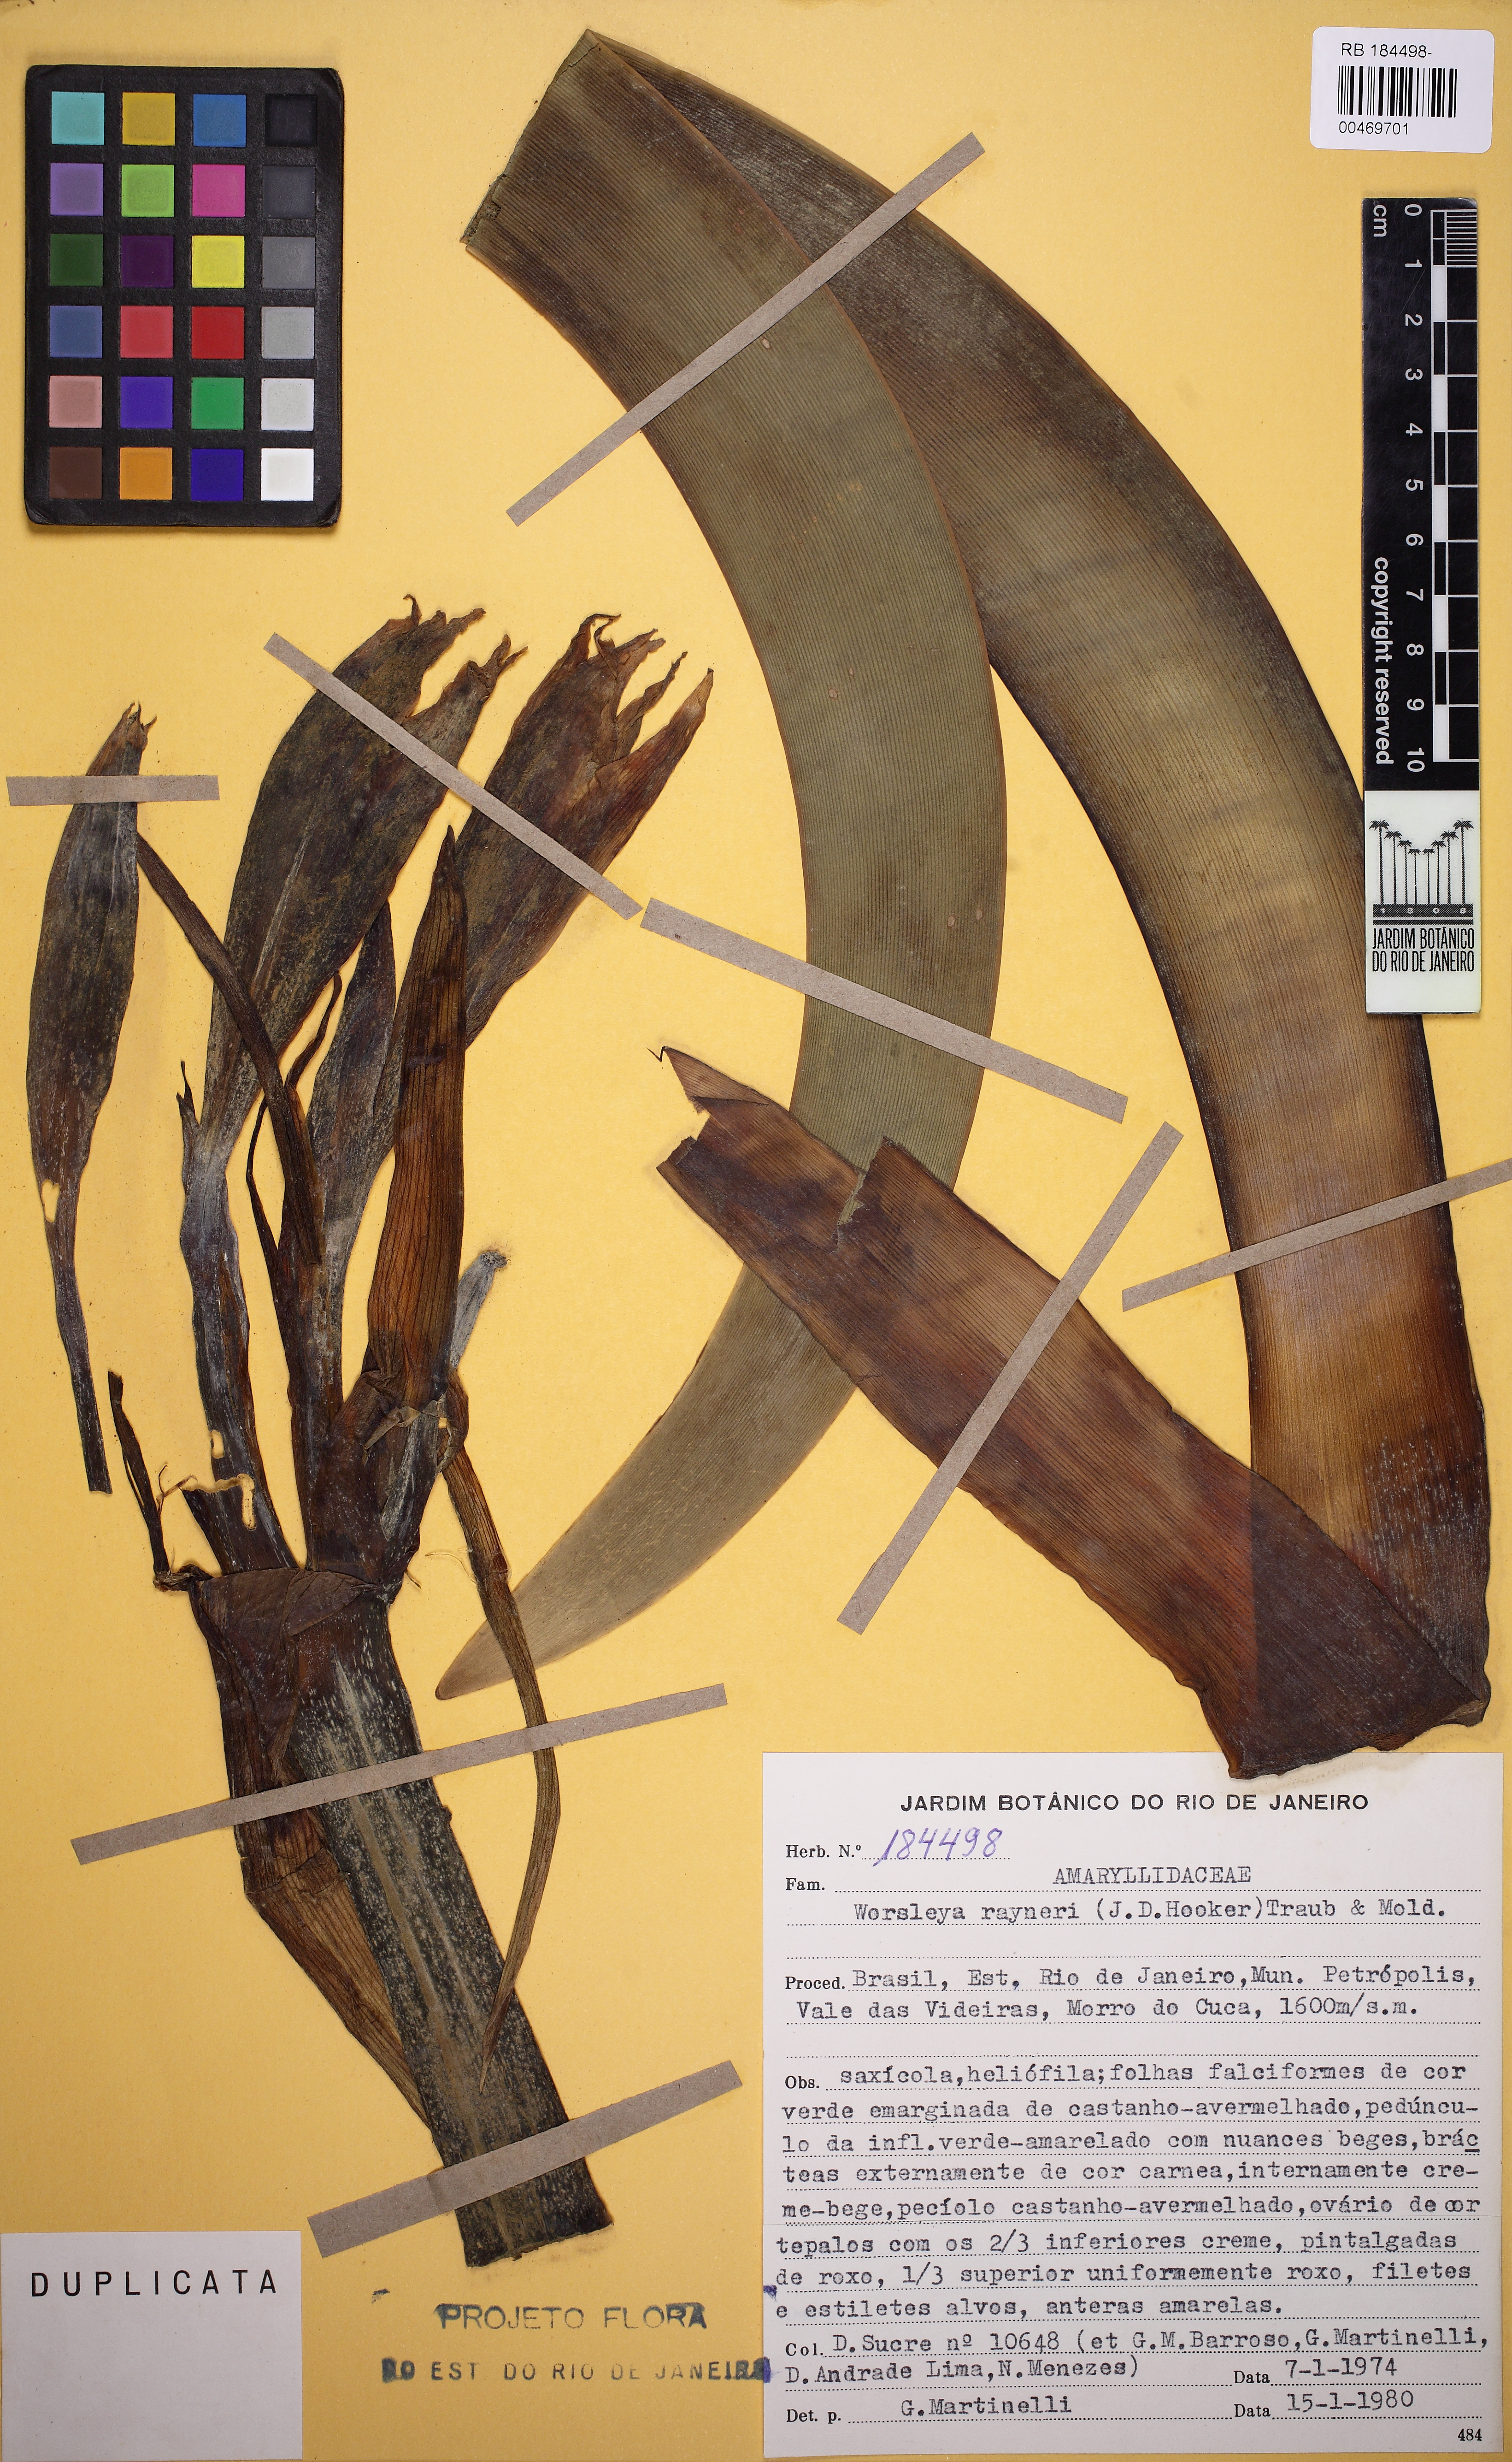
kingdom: Plantae
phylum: Tracheophyta
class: Liliopsida
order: Asparagales
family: Amaryllidaceae
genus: Worsleya
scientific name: Worsleya procera
